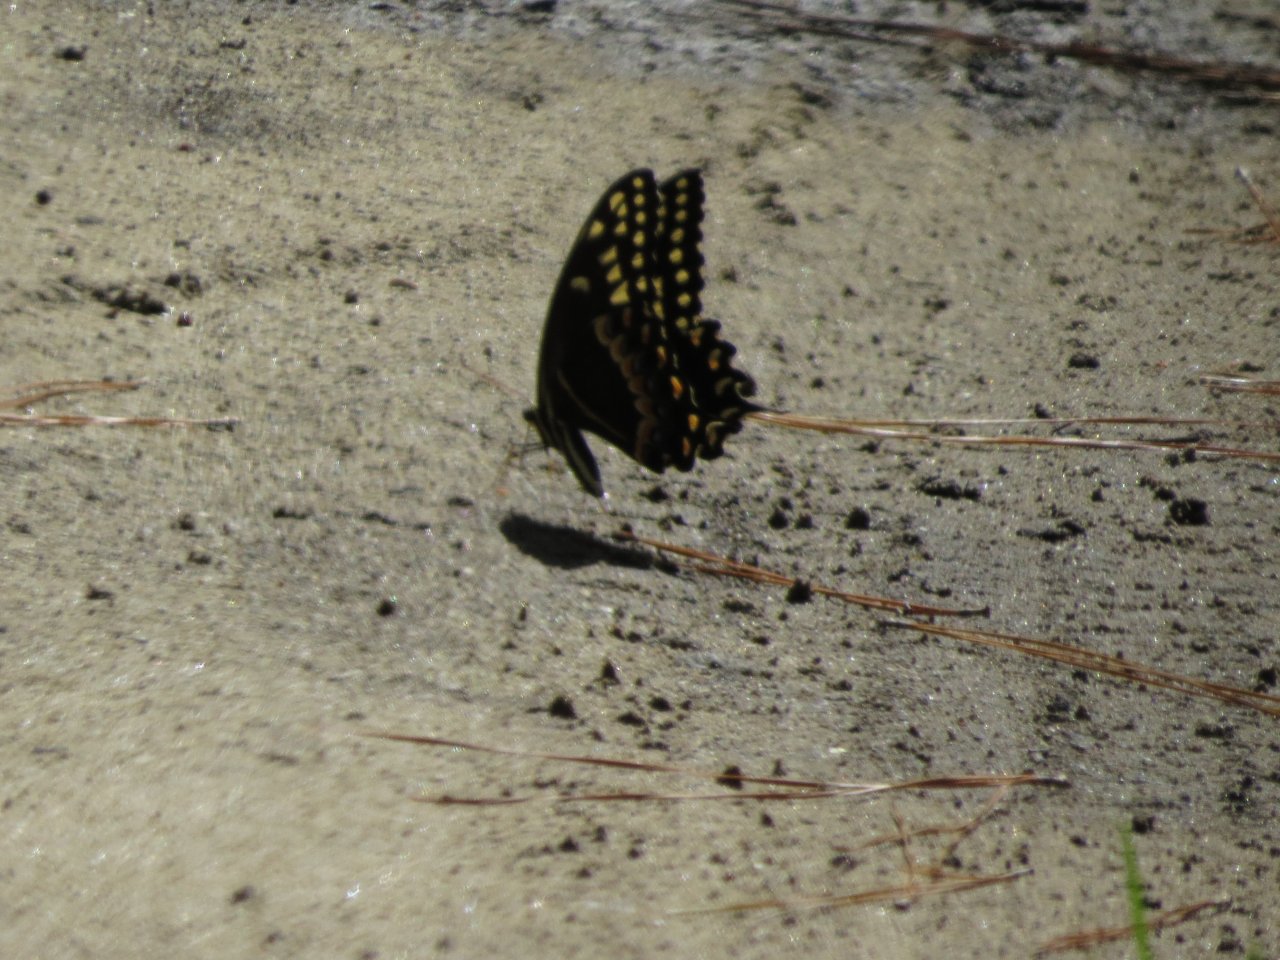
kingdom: Animalia
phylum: Arthropoda
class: Insecta
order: Lepidoptera
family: Papilionidae
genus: Pterourus
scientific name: Pterourus palamedes
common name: Palamedes Swallowtail
